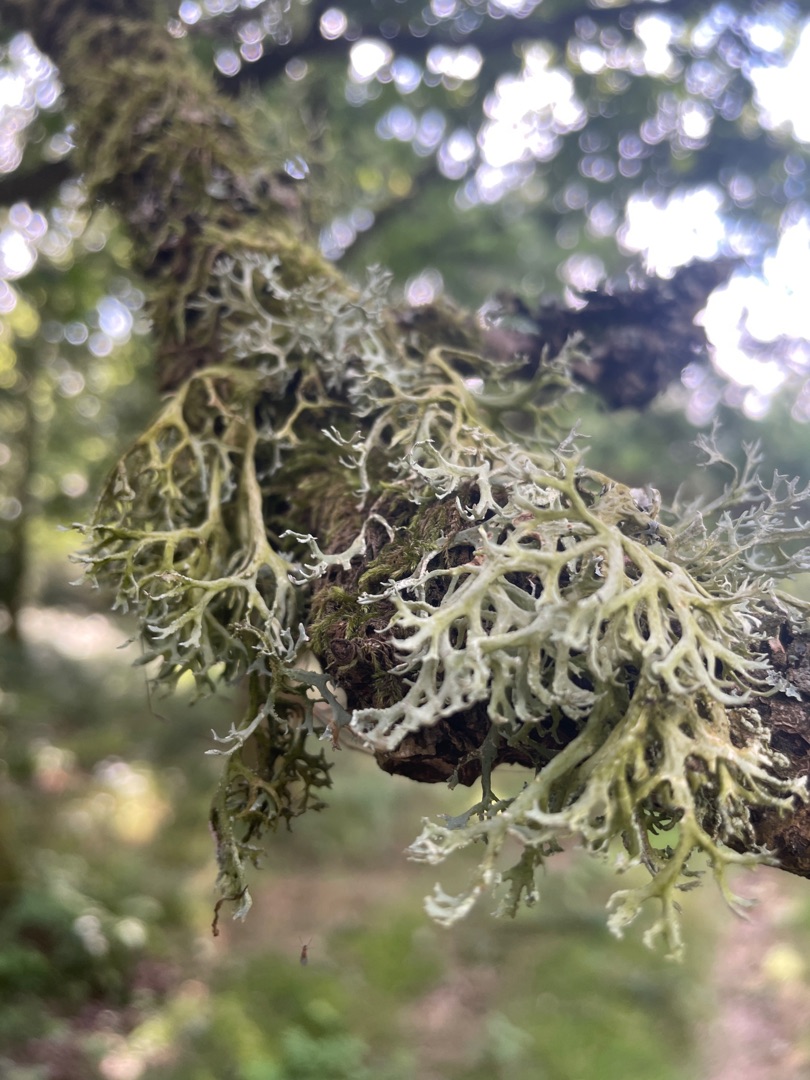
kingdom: Fungi
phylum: Ascomycota
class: Lecanoromycetes
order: Lecanorales
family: Parmeliaceae
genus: Evernia
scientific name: Evernia prunastri
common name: Almindelig slåenlav
